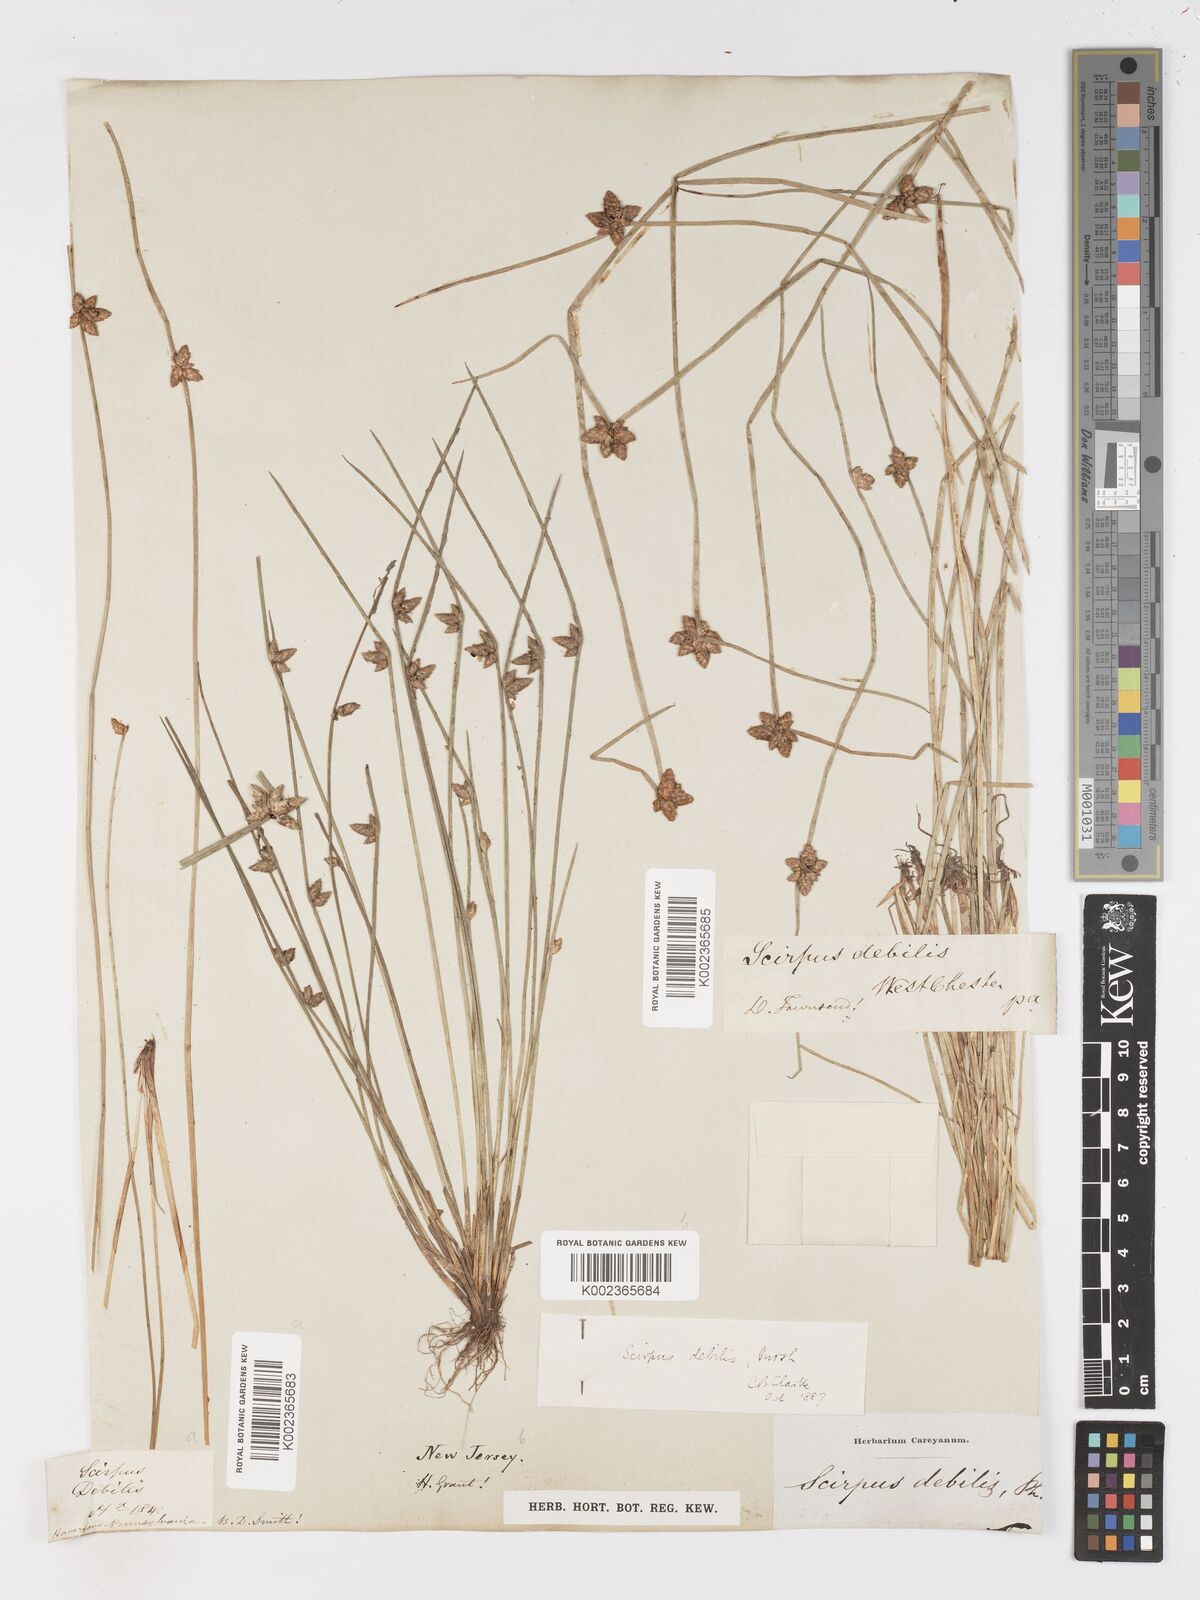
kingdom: Plantae
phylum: Tracheophyta
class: Liliopsida
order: Poales
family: Cyperaceae
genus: Schoenoplectiella
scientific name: Schoenoplectiella purshiana
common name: Weak-stalked bulrush
